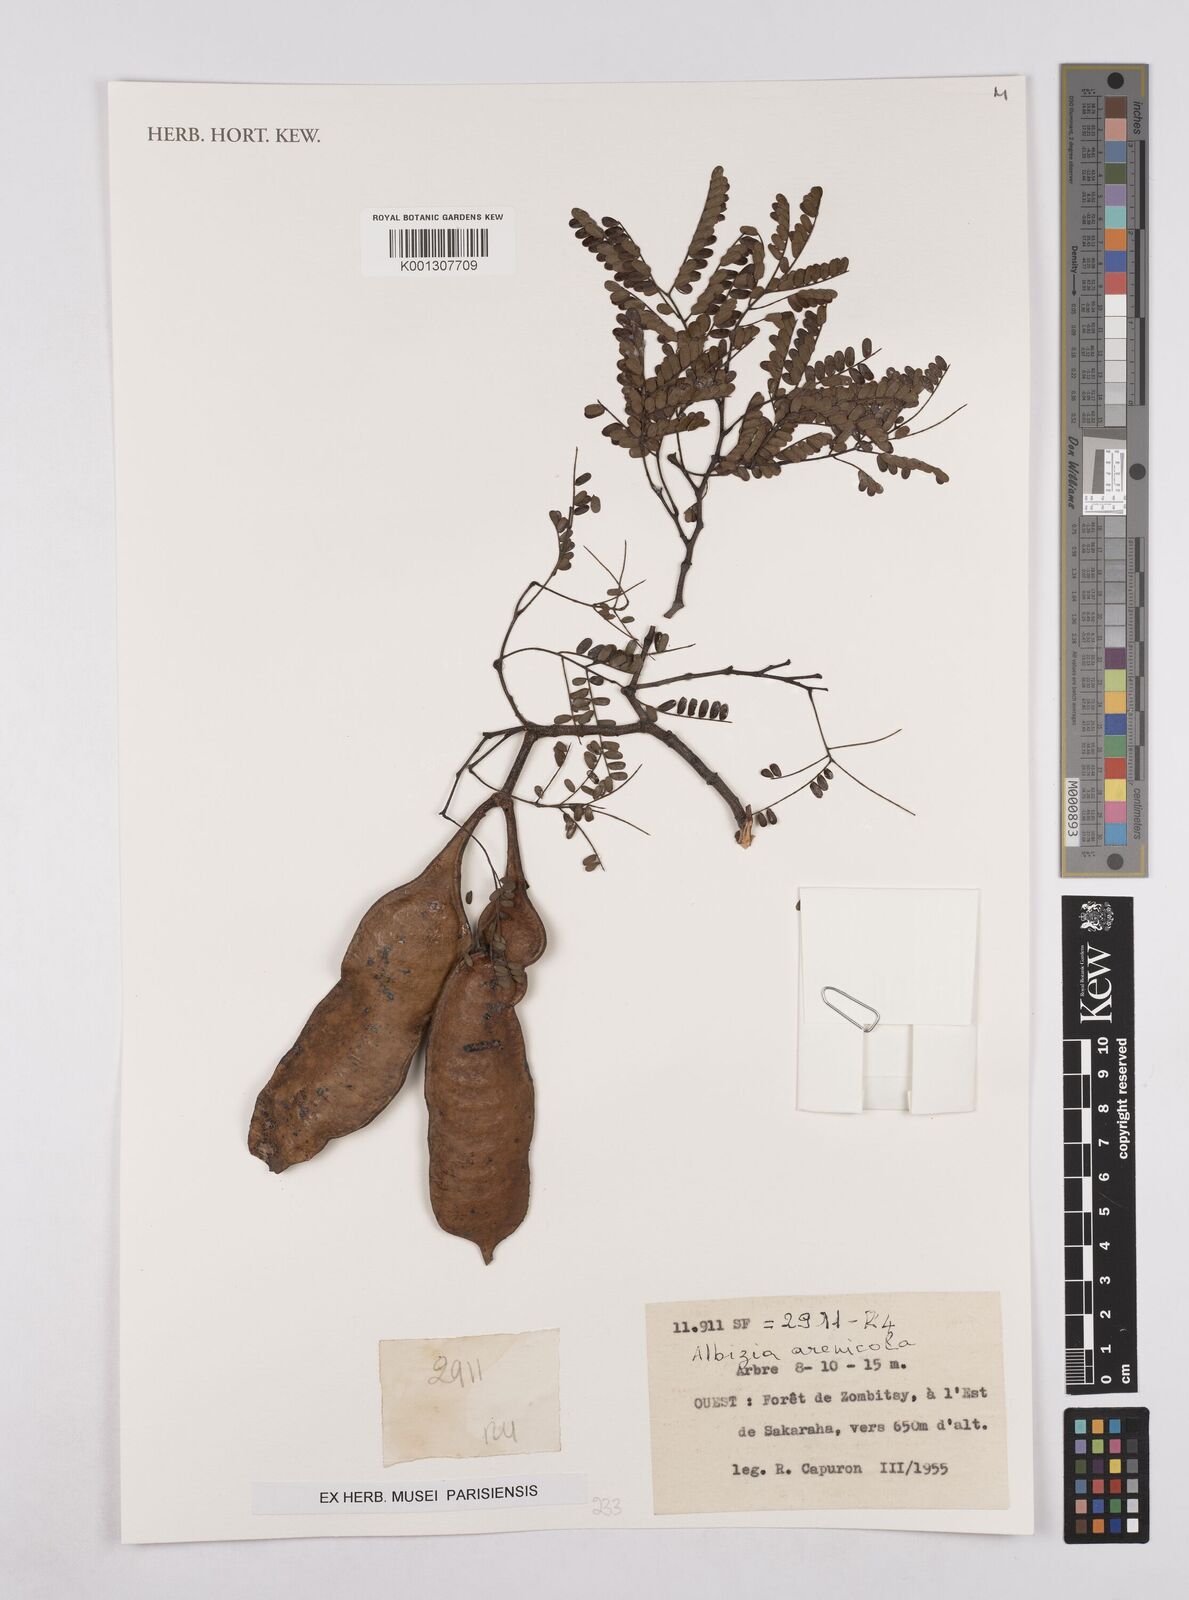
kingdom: Plantae
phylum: Tracheophyta
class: Magnoliopsida
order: Fabales
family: Fabaceae
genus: Albizia
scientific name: Albizia arenicola
